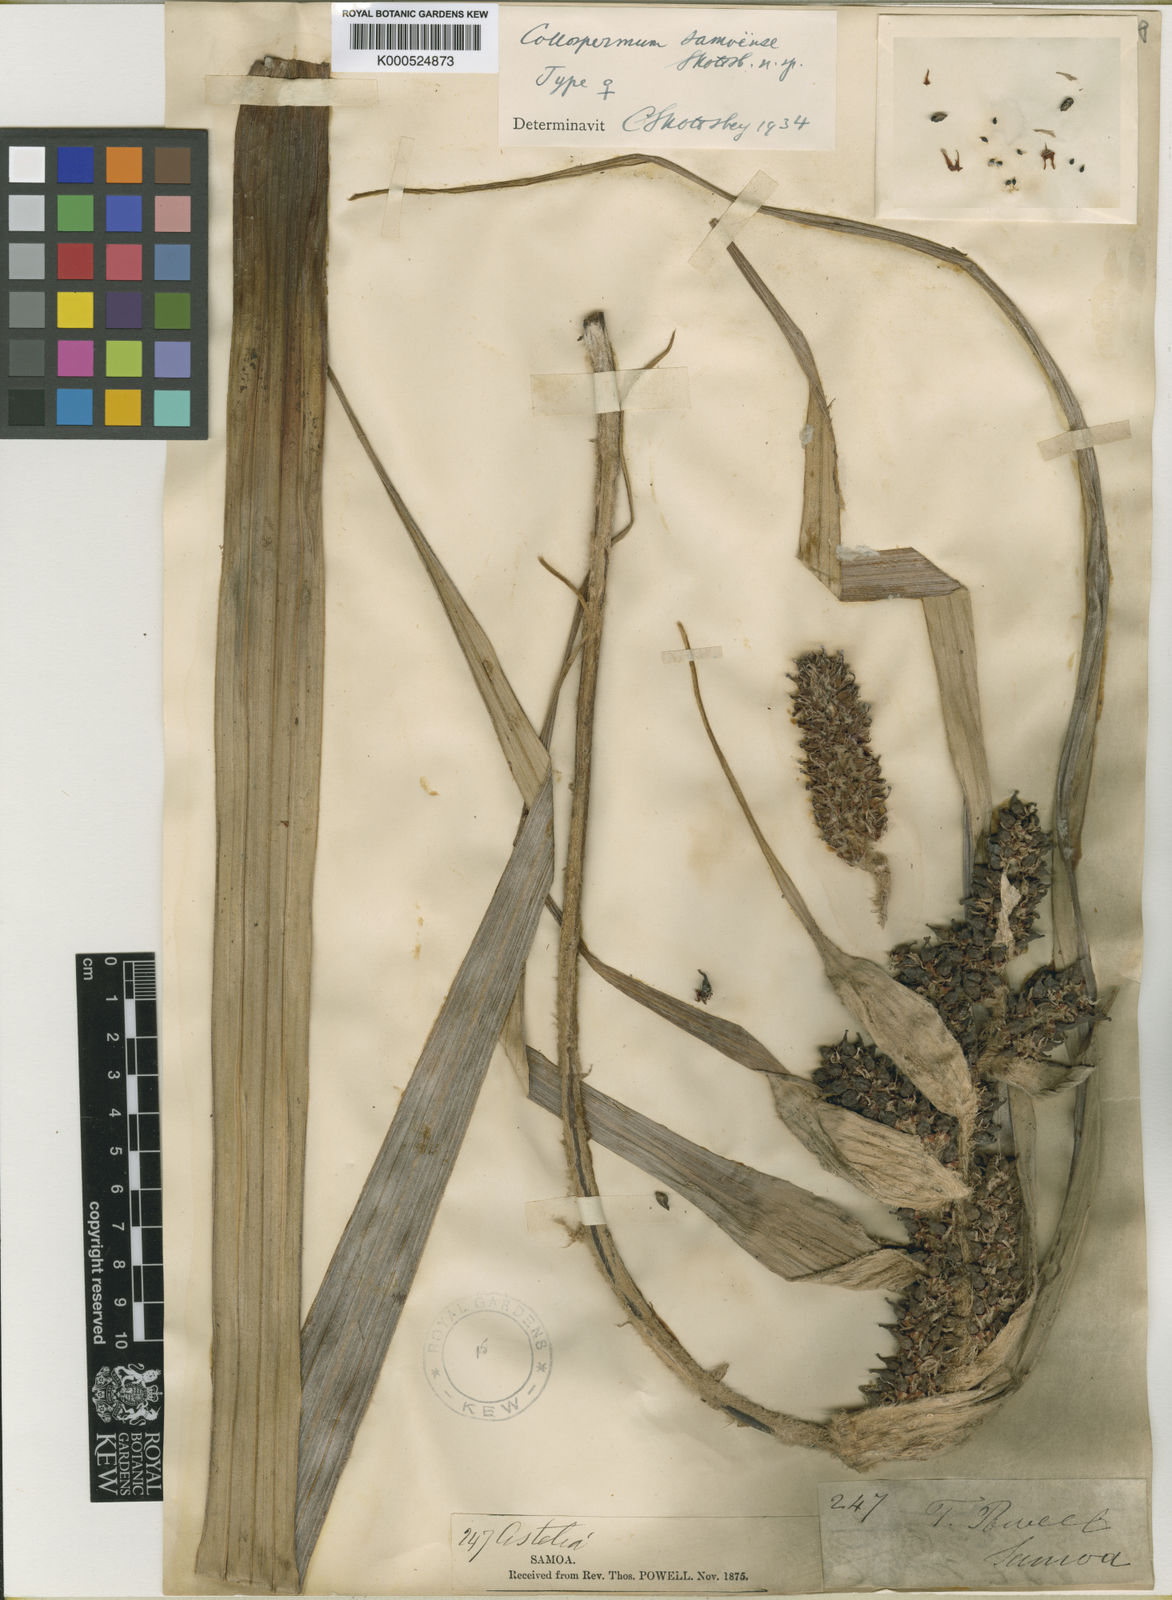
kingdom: Plantae
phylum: Tracheophyta
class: Liliopsida
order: Asparagales
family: Asteliaceae
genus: Milligania
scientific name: Milligania densiflora
